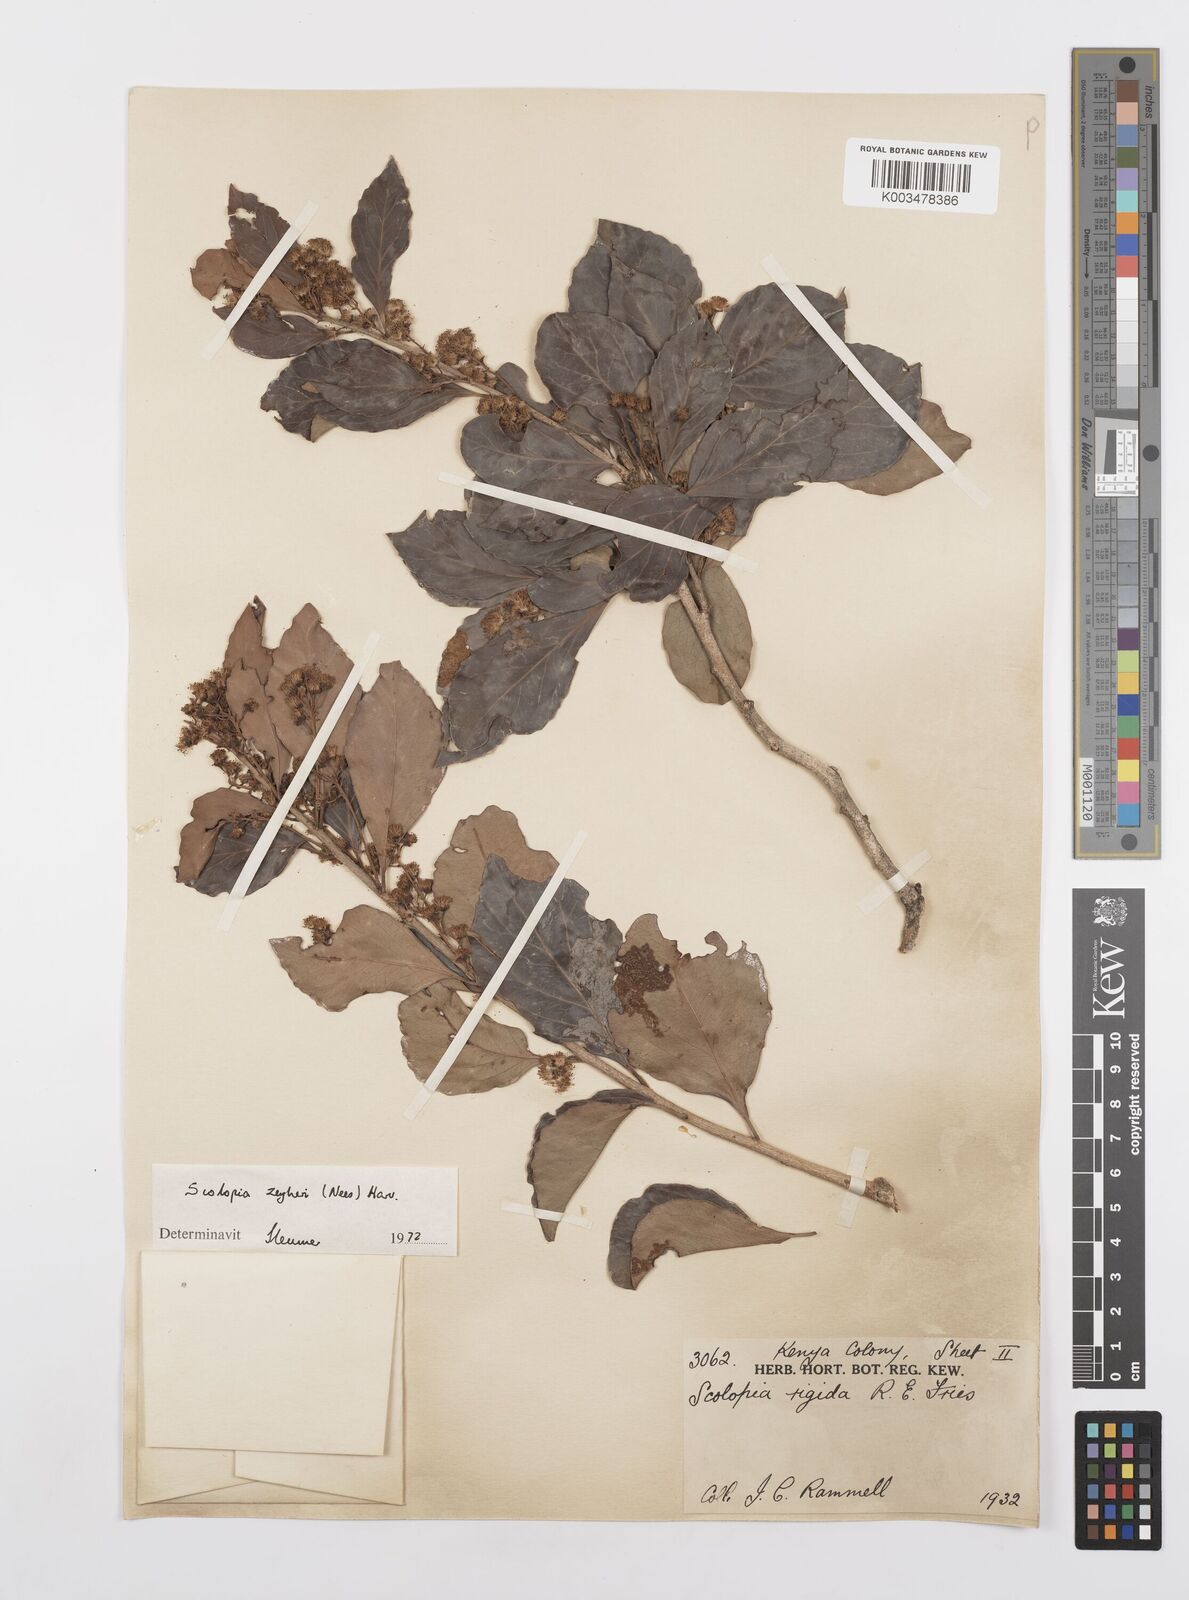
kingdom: Plantae
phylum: Tracheophyta
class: Magnoliopsida
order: Malpighiales
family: Salicaceae
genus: Scolopia
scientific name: Scolopia zeyheri
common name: Thorn pear
